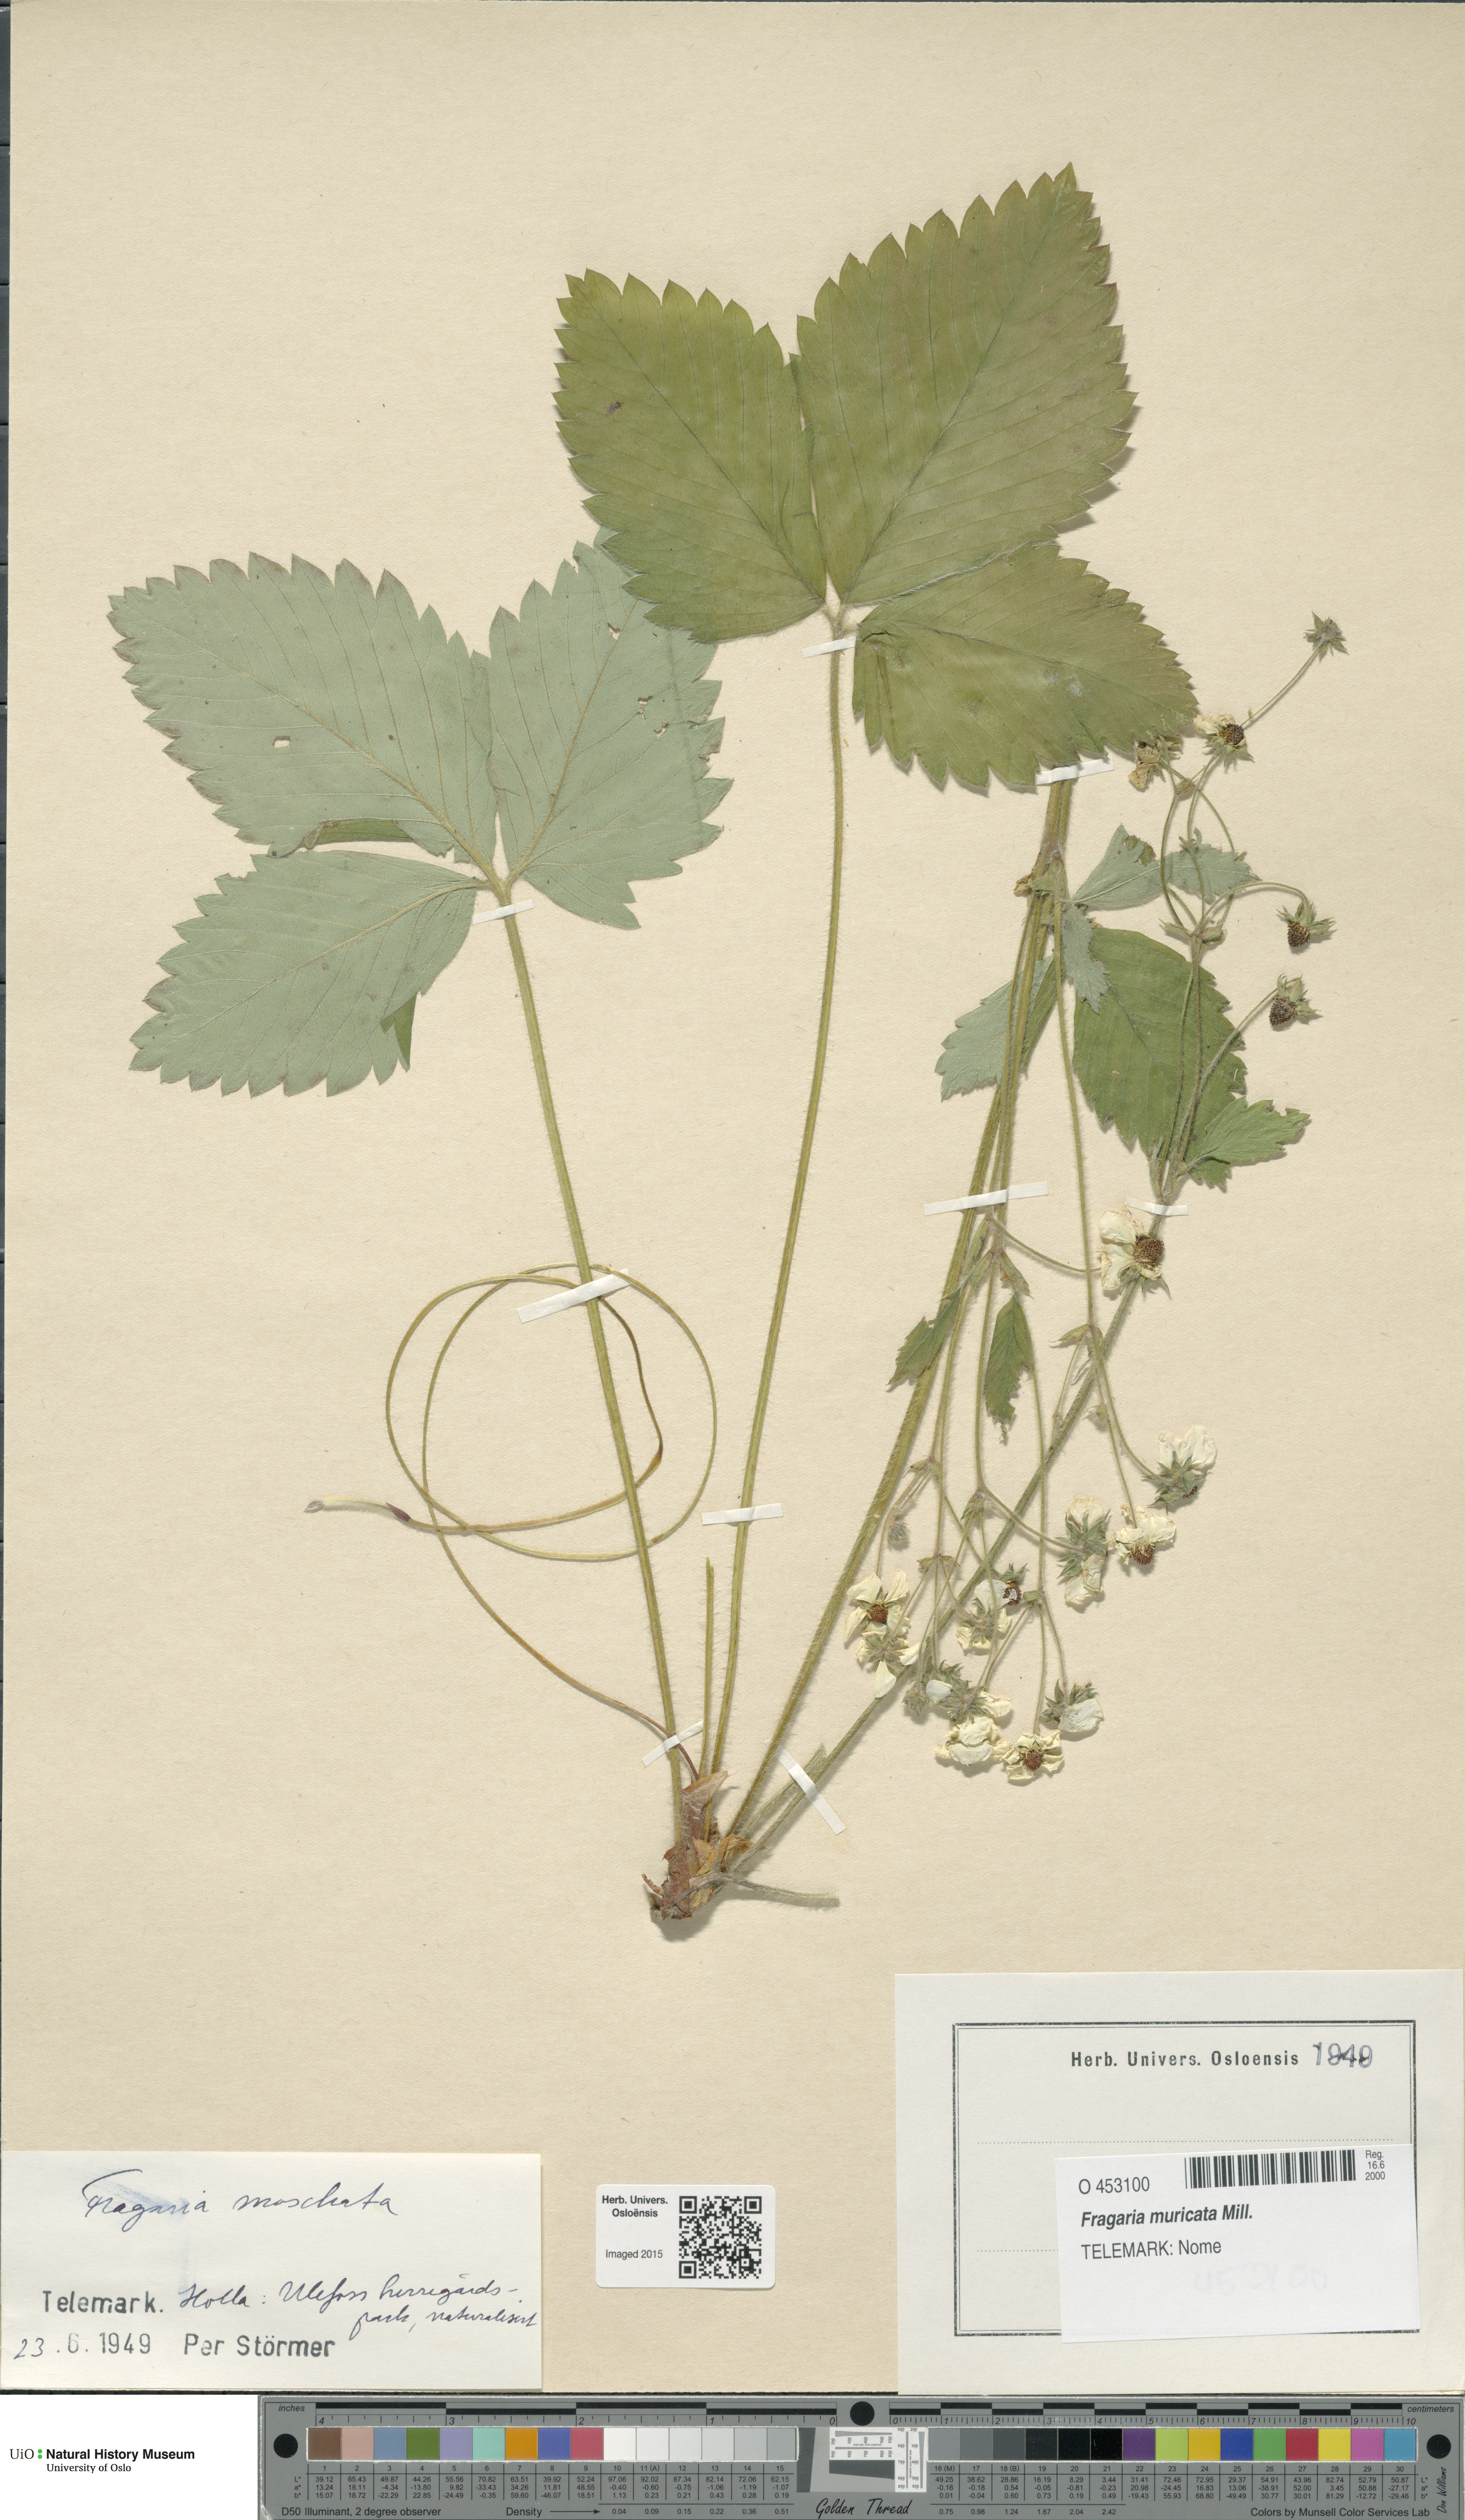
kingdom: Plantae
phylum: Tracheophyta
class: Magnoliopsida
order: Rosales
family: Rosaceae
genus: Fragaria
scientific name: Fragaria moschata
